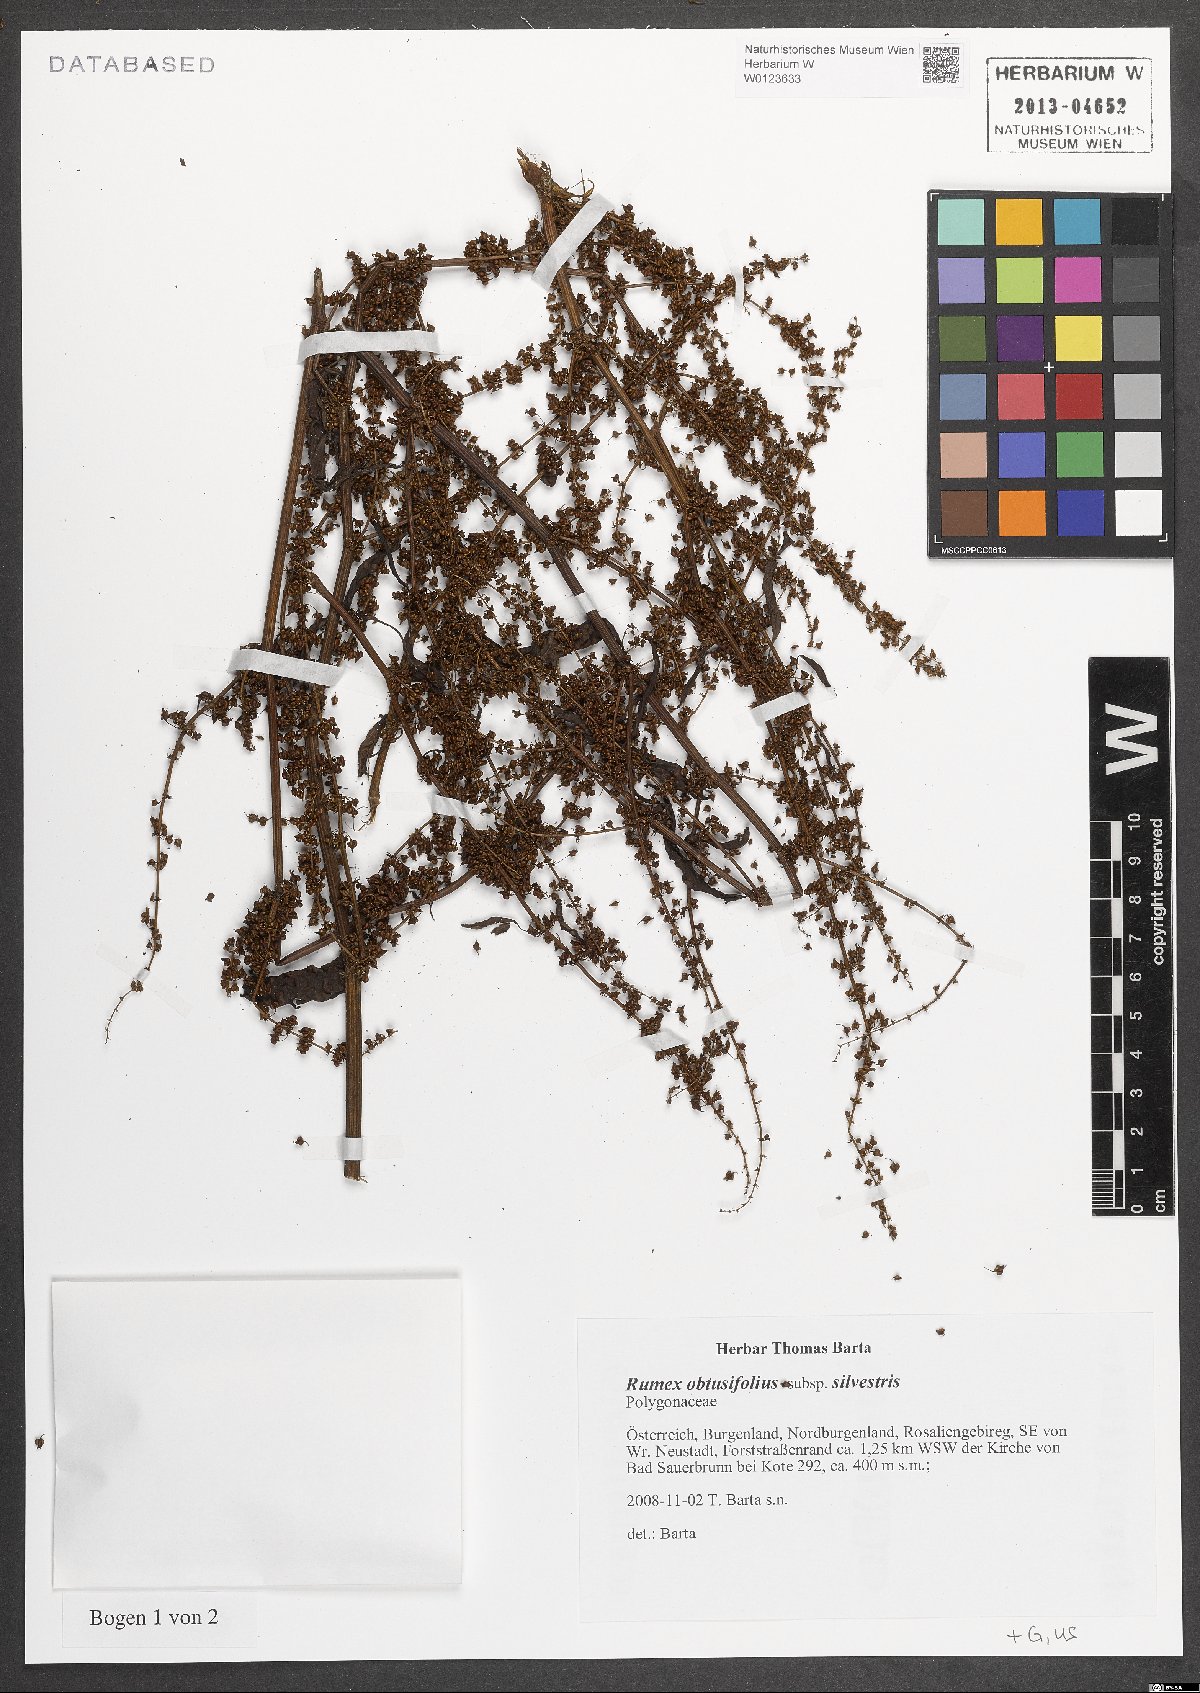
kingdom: Plantae
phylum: Tracheophyta
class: Magnoliopsida
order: Caryophyllales
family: Polygonaceae
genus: Rumex
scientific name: Rumex obtusifolius
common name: Bitter dock
